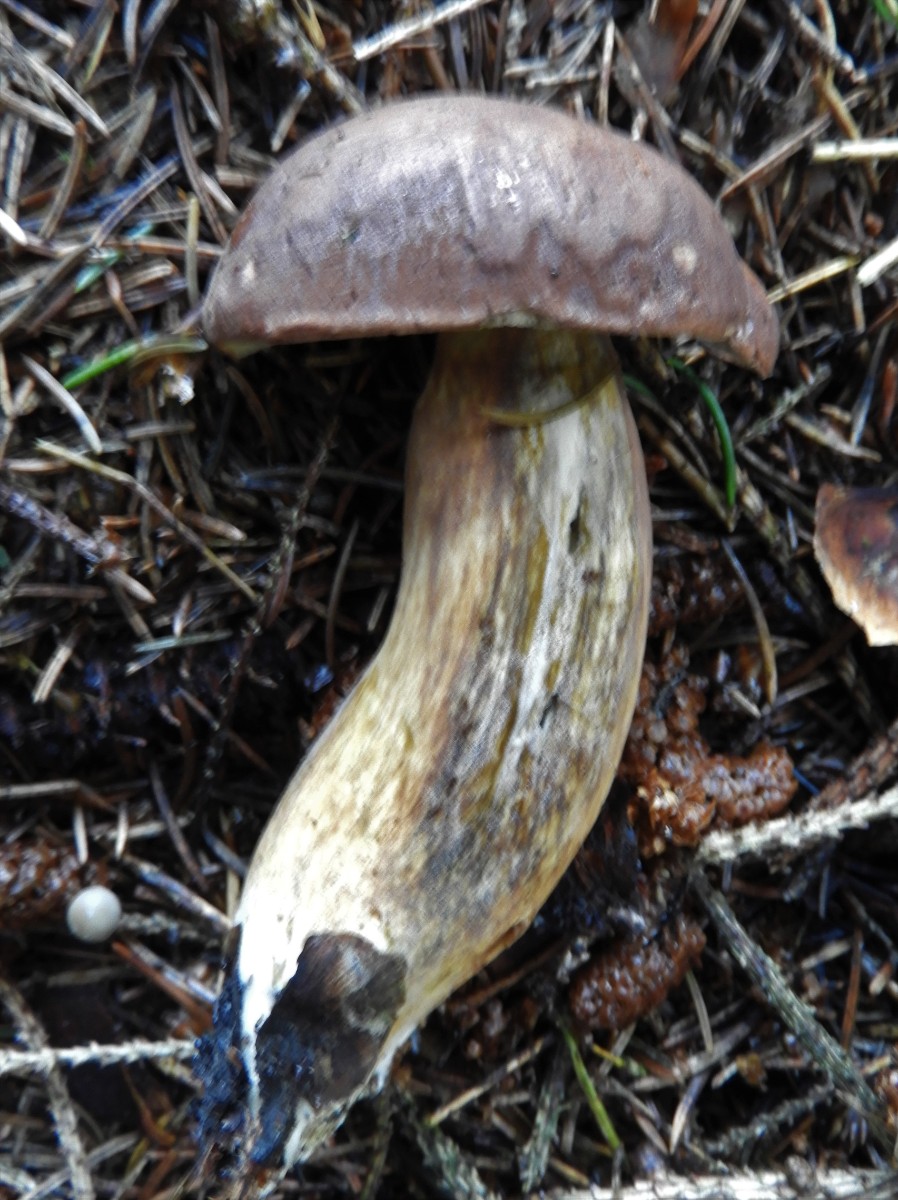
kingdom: Fungi
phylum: Basidiomycota
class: Agaricomycetes
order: Boletales
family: Boletaceae
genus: Imleria
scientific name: Imleria badia
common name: brunstokket rørhat
